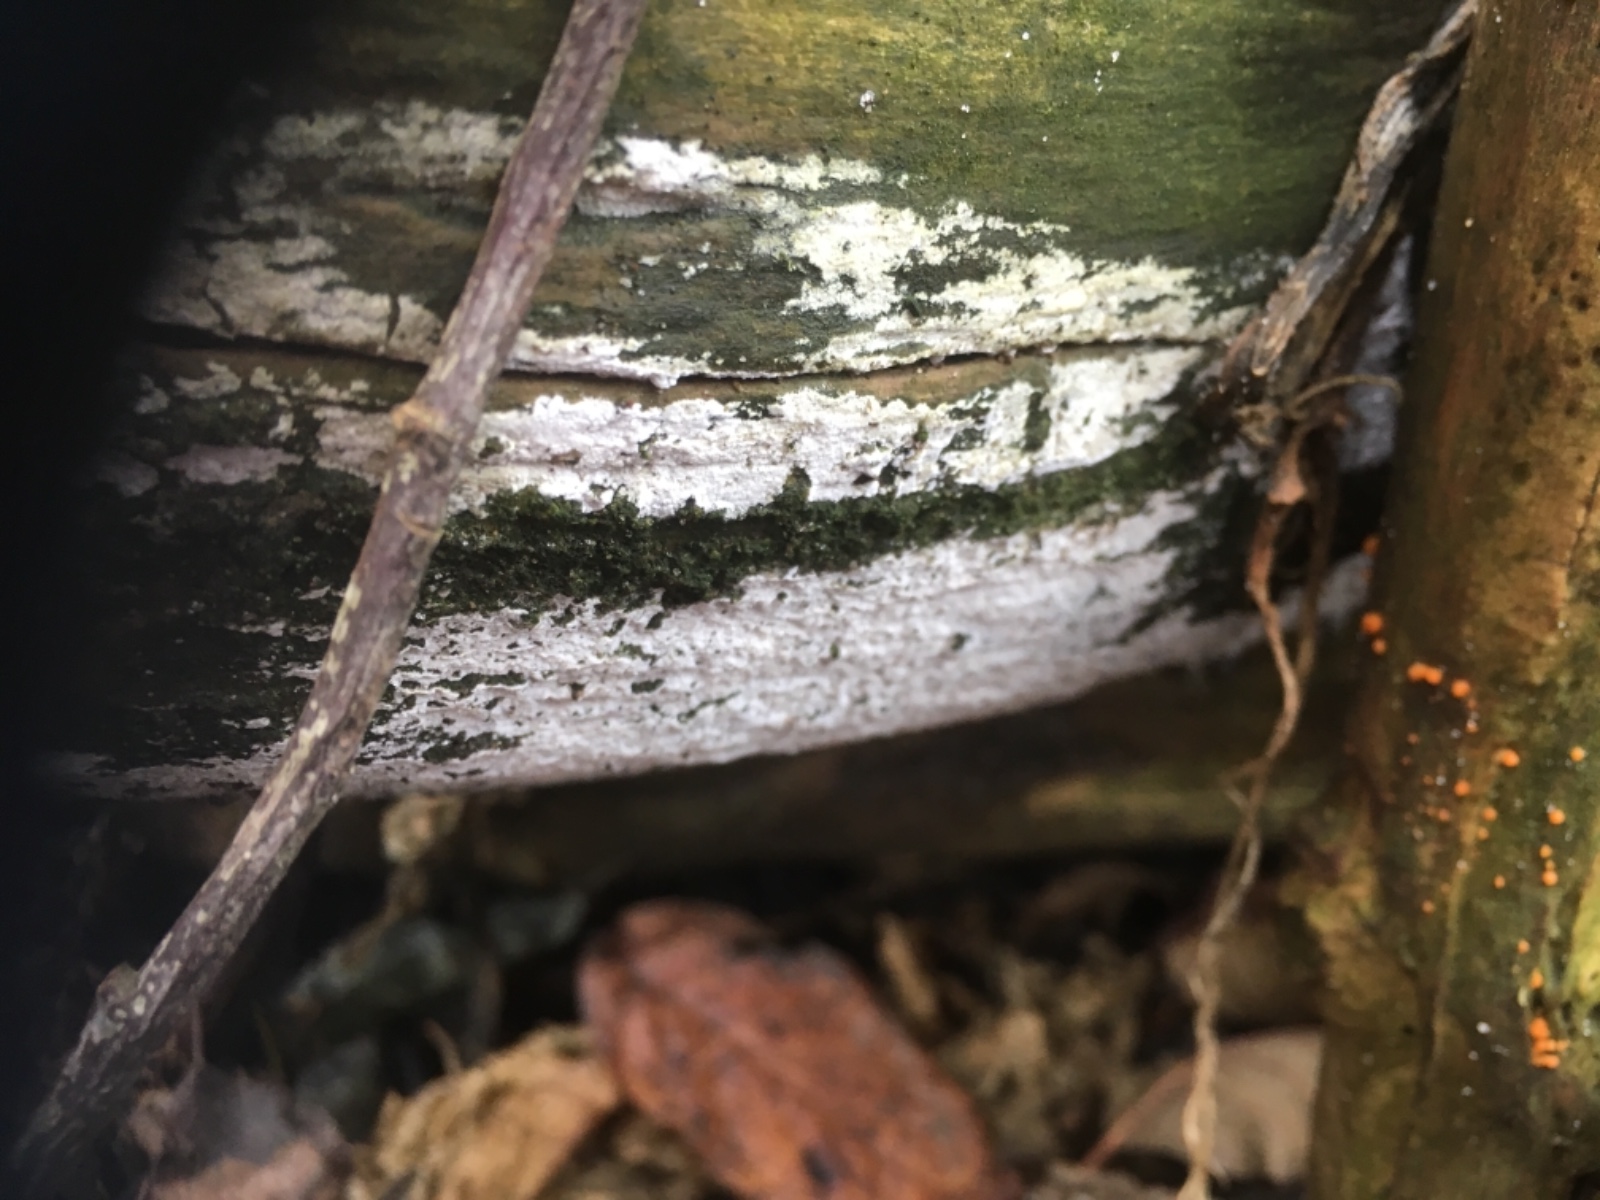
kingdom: Fungi
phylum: Basidiomycota
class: Agaricomycetes
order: Corticiales
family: Corticiaceae
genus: Lyomyces
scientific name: Lyomyces sambuci
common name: almindelig hyldehinde
